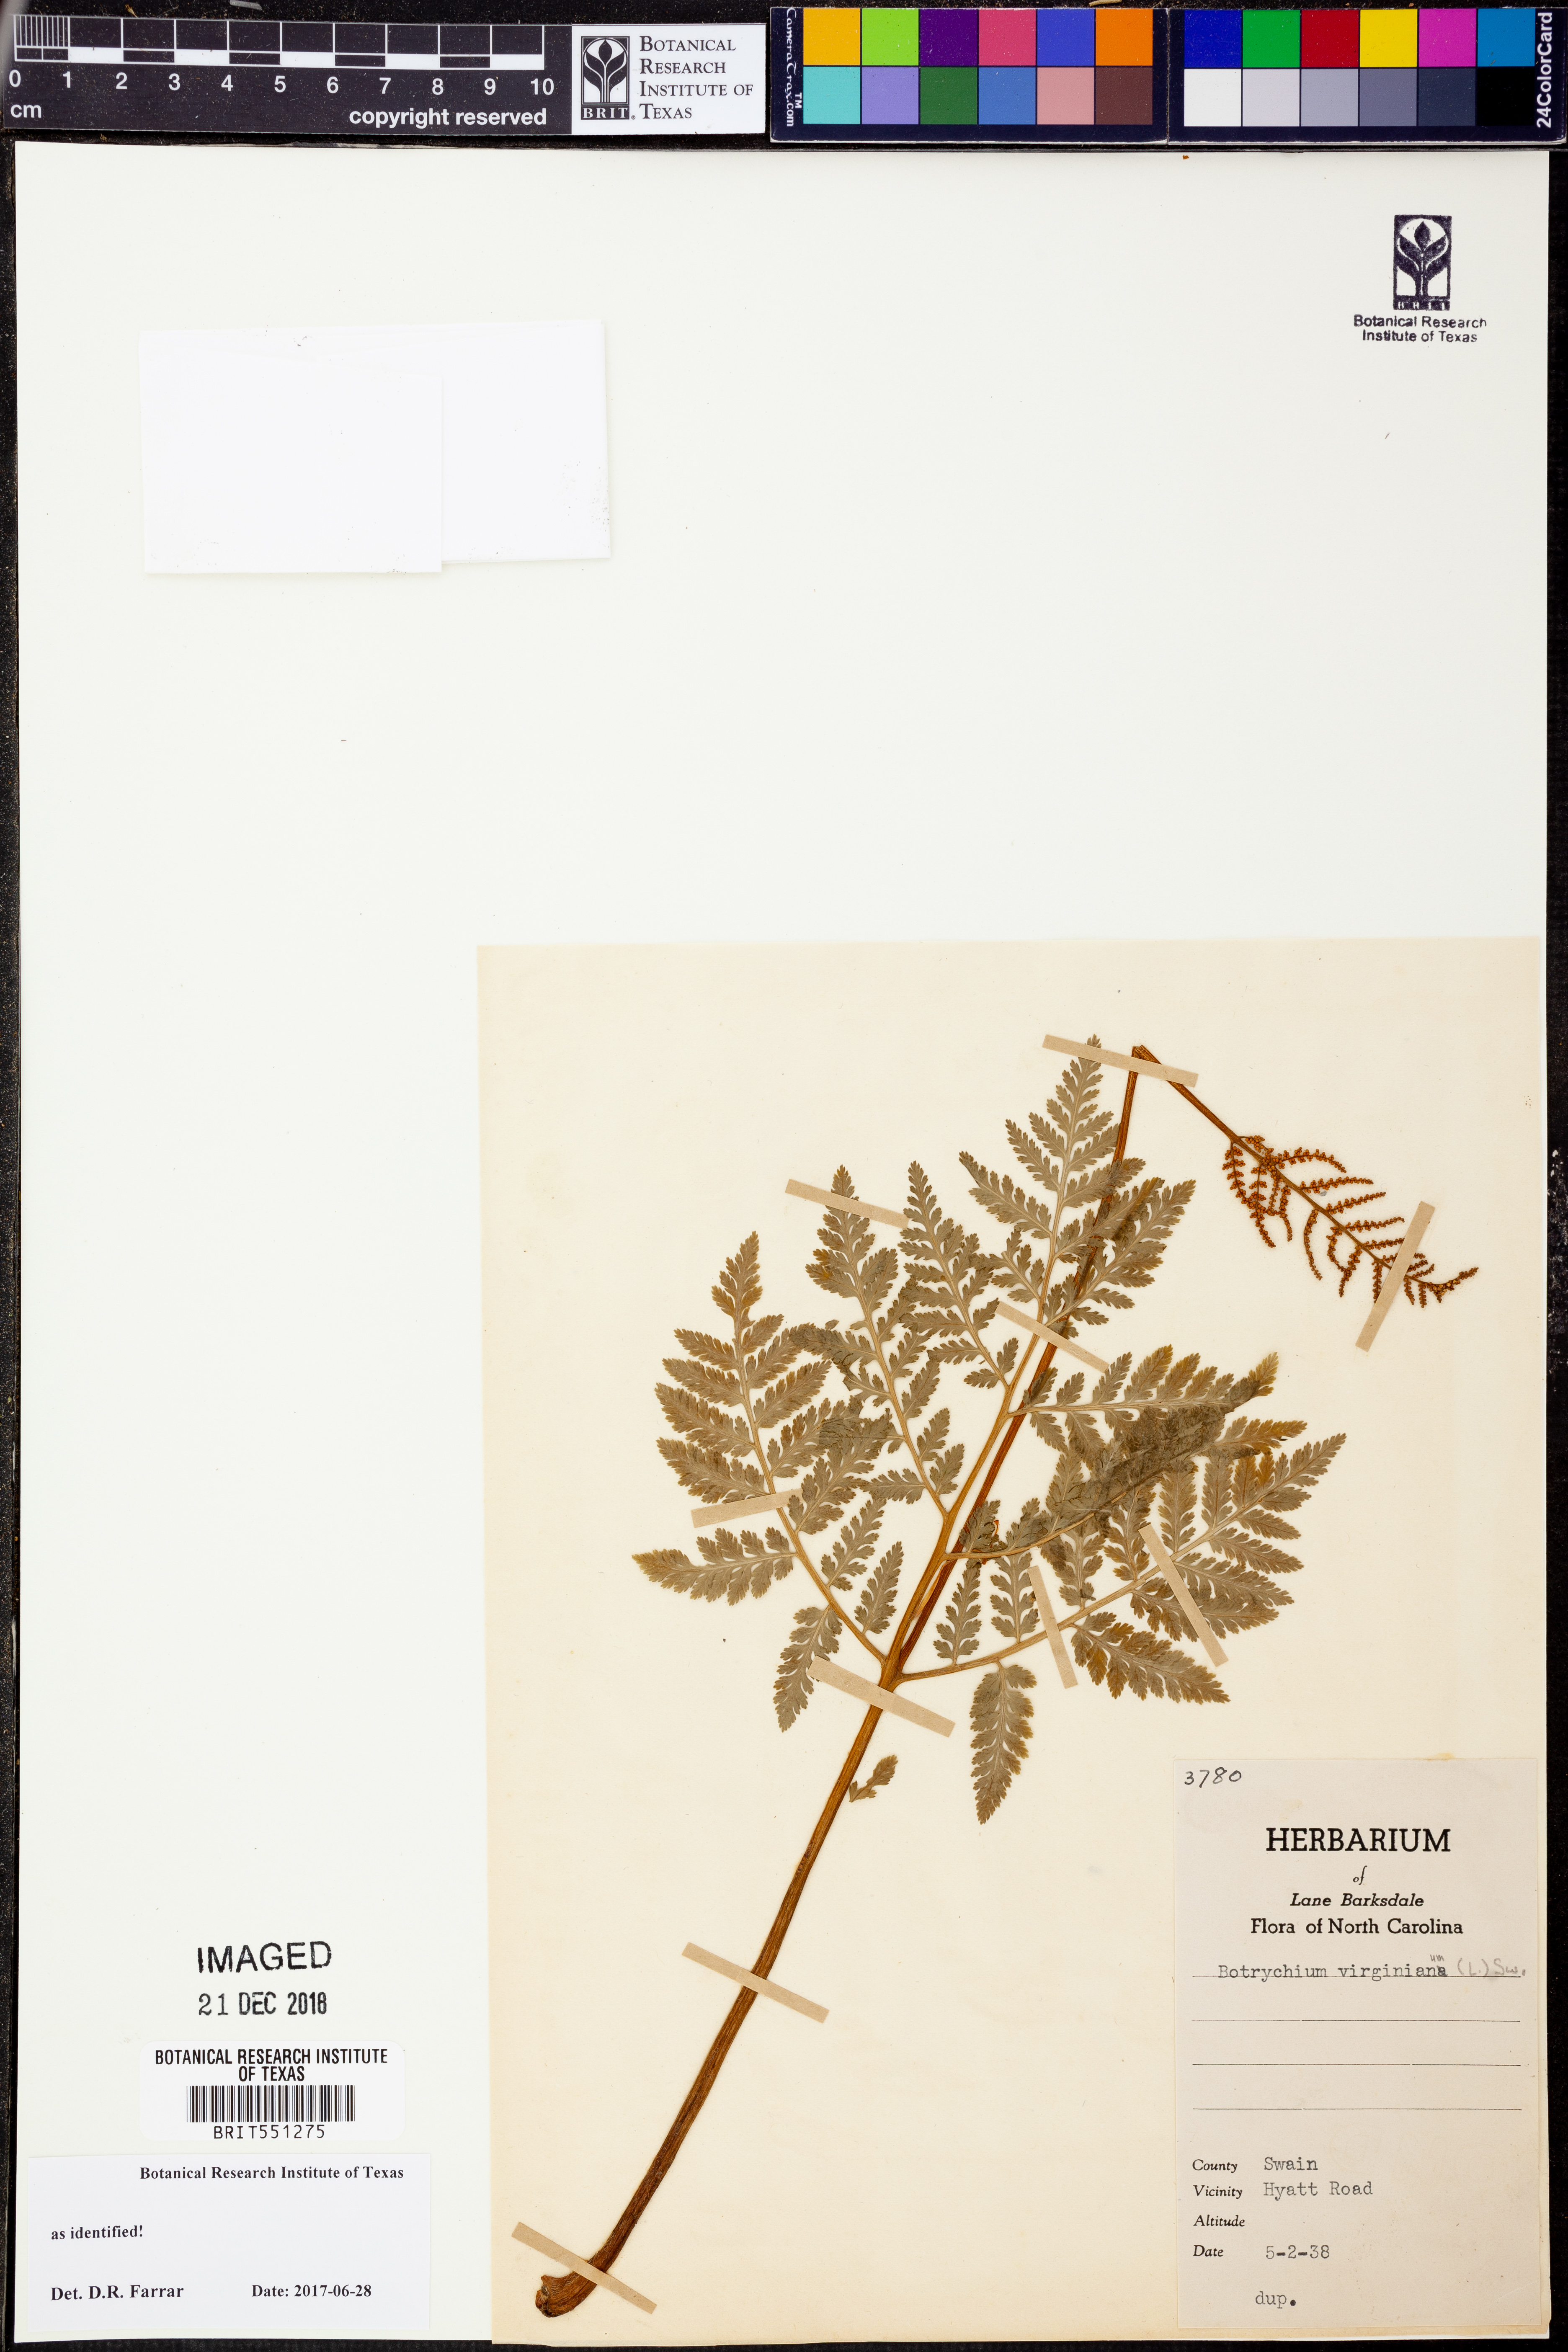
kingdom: Plantae
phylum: Tracheophyta
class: Polypodiopsida
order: Ophioglossales
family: Ophioglossaceae
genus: Botrypus
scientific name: Botrypus virginianus
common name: Common grapefern
